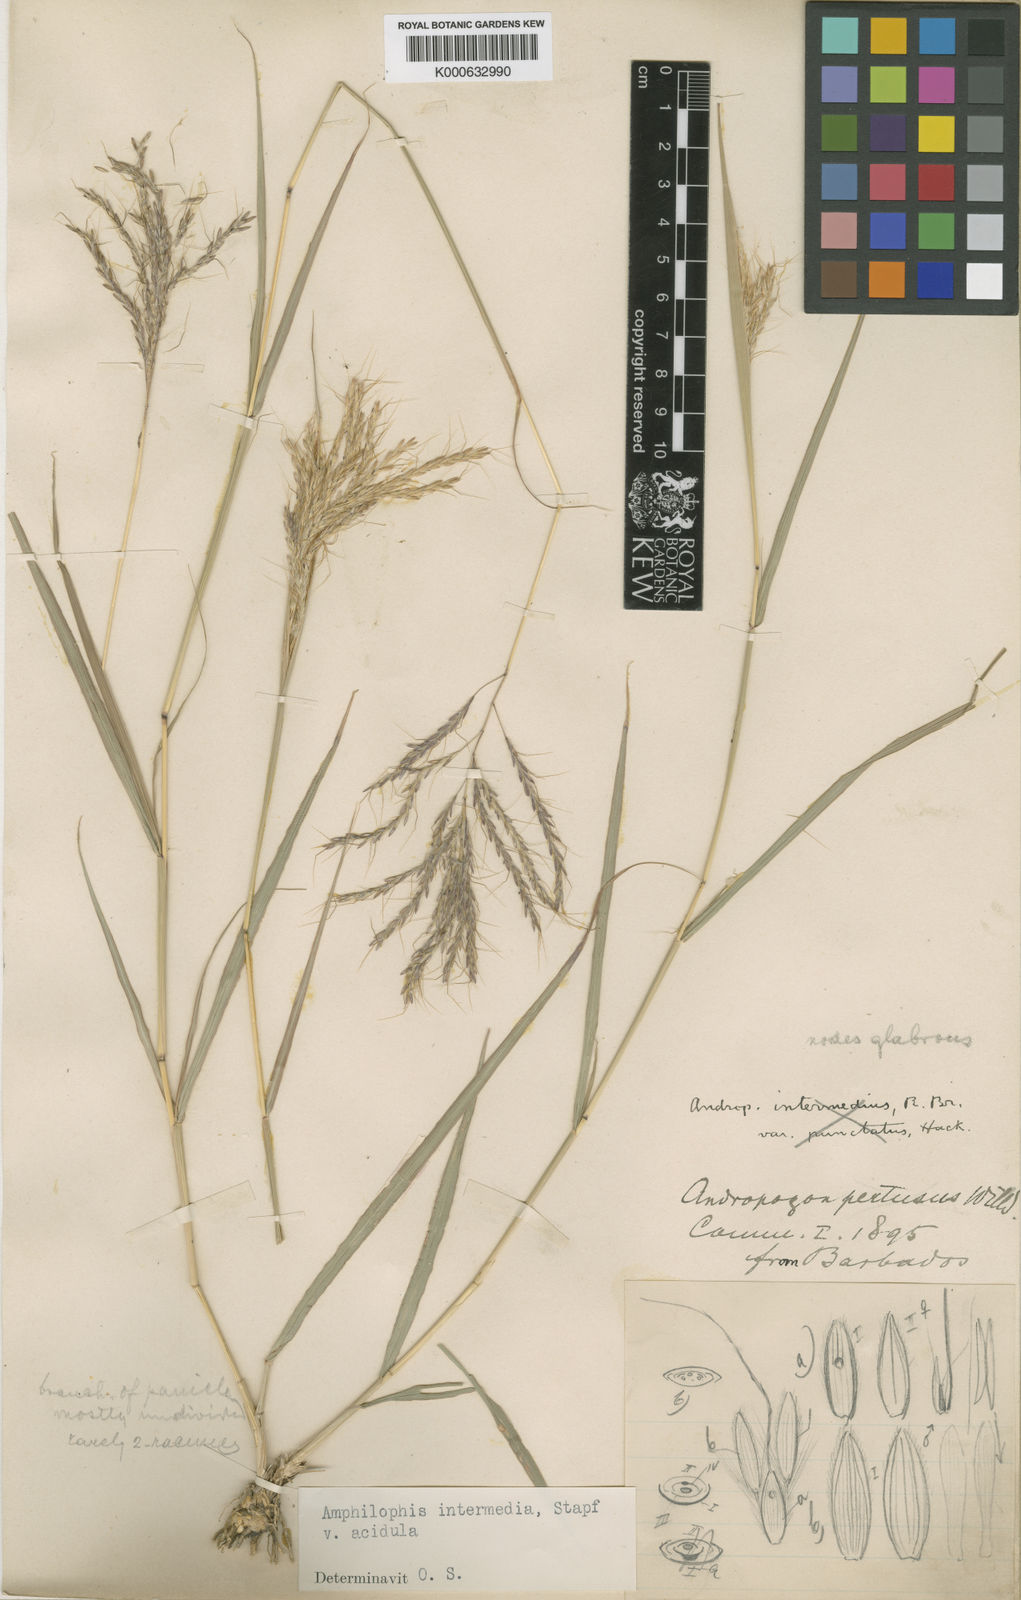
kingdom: Plantae
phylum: Tracheophyta
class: Liliopsida
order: Poales
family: Poaceae
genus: Bothriochloa
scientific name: Bothriochloa bladhii
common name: Caucasian bluestem
